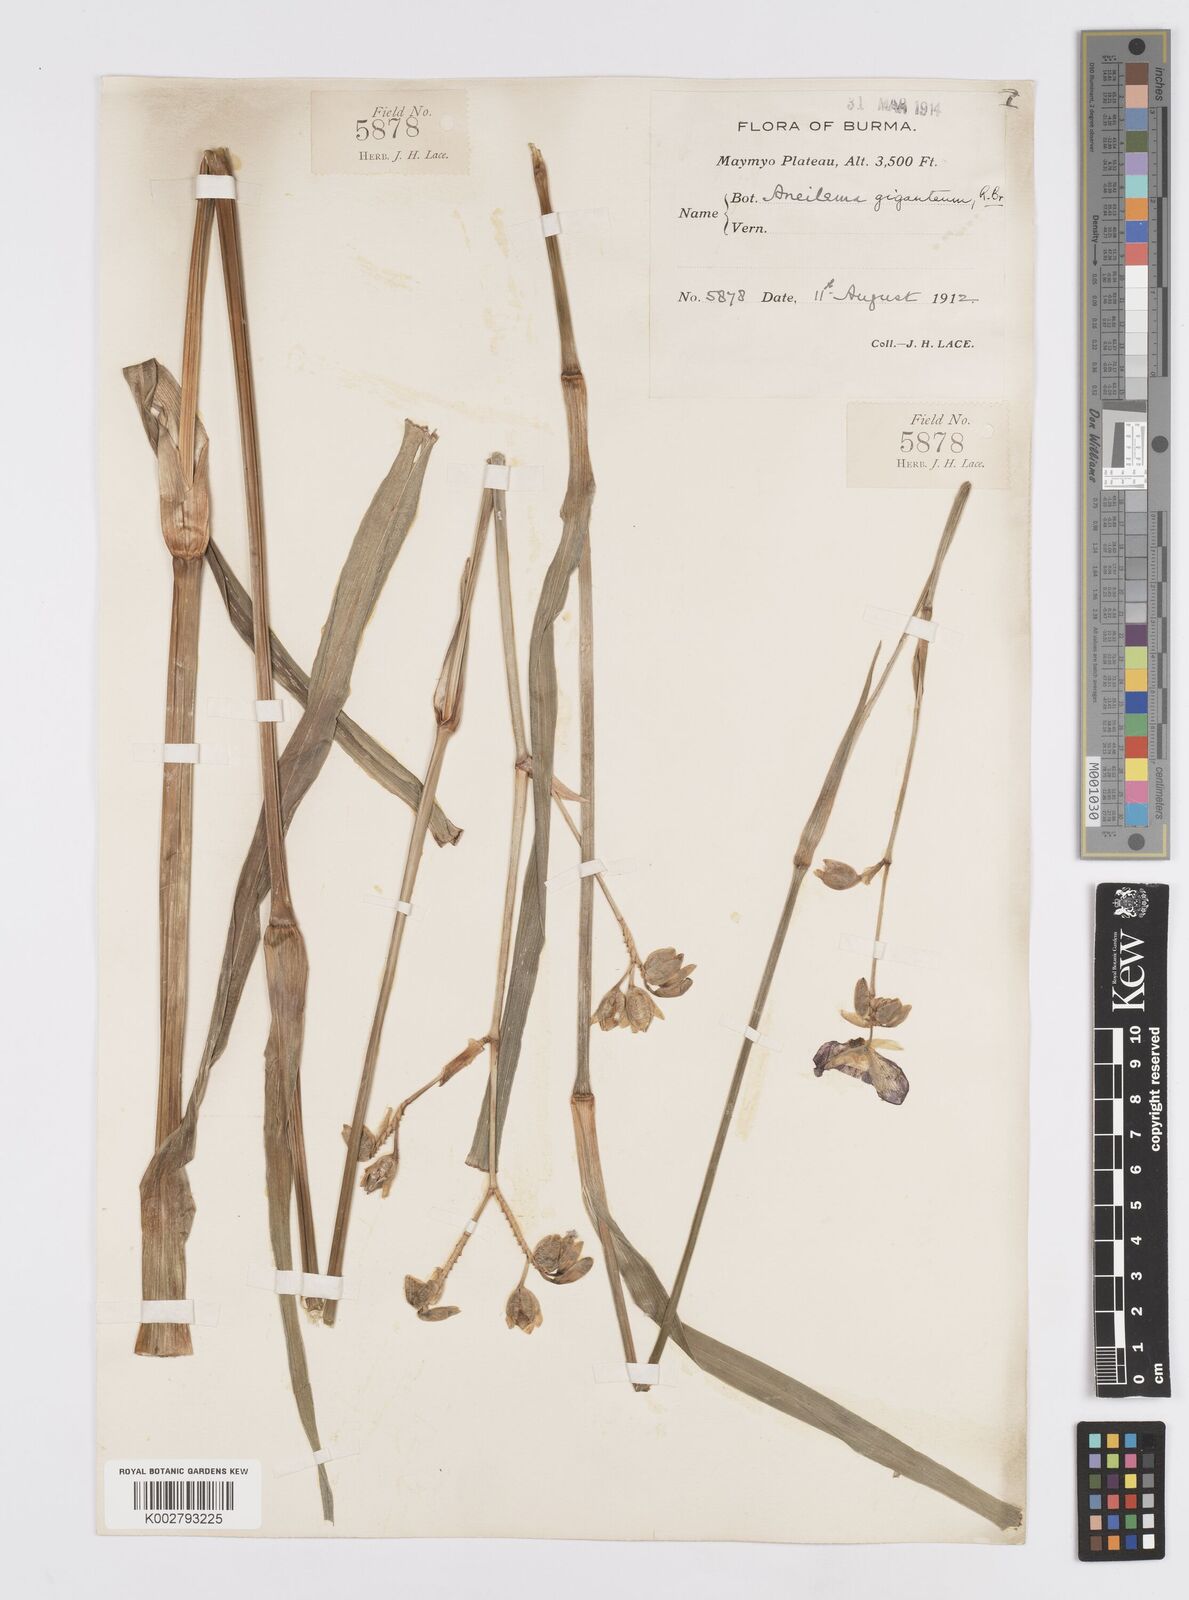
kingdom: Plantae
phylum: Tracheophyta
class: Liliopsida
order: Commelinales
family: Commelinaceae
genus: Murdannia
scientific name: Murdannia gigantea
